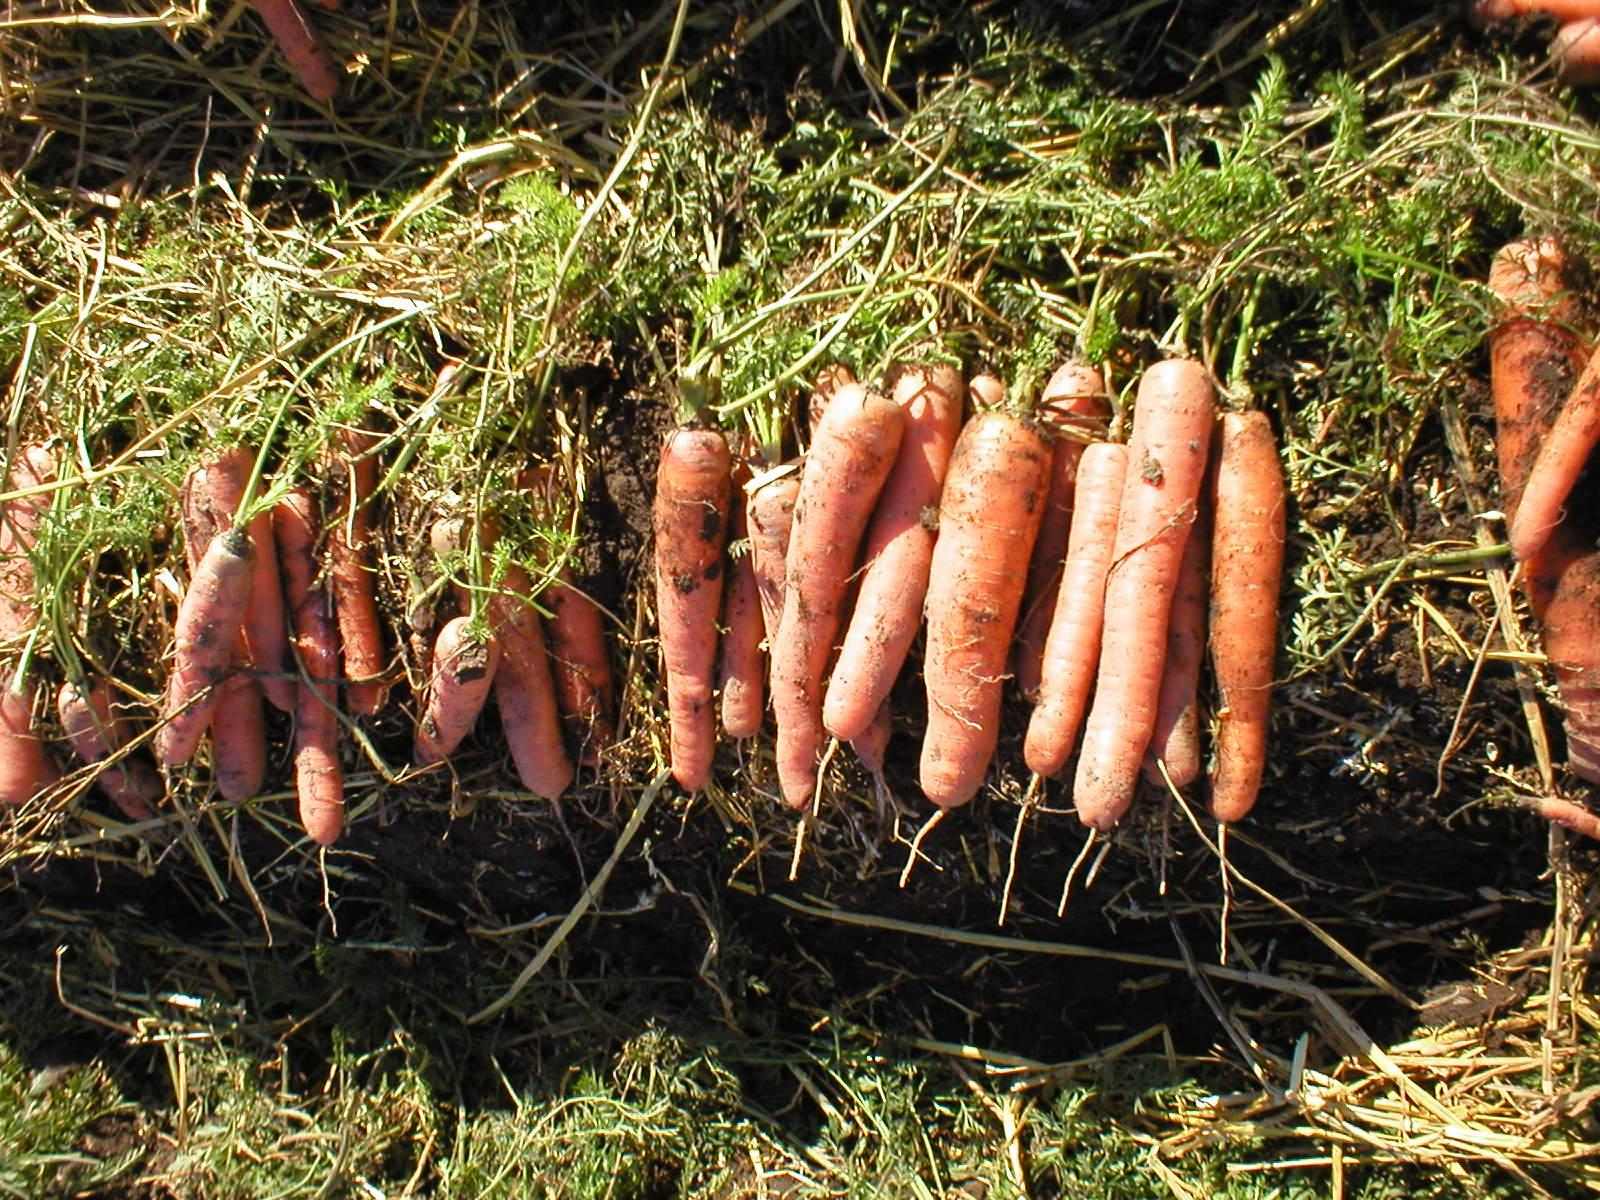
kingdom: Plantae
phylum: Tracheophyta
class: Magnoliopsida
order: Apiales
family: Apiaceae
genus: Daucus
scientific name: Daucus carota
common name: Wild carrot
